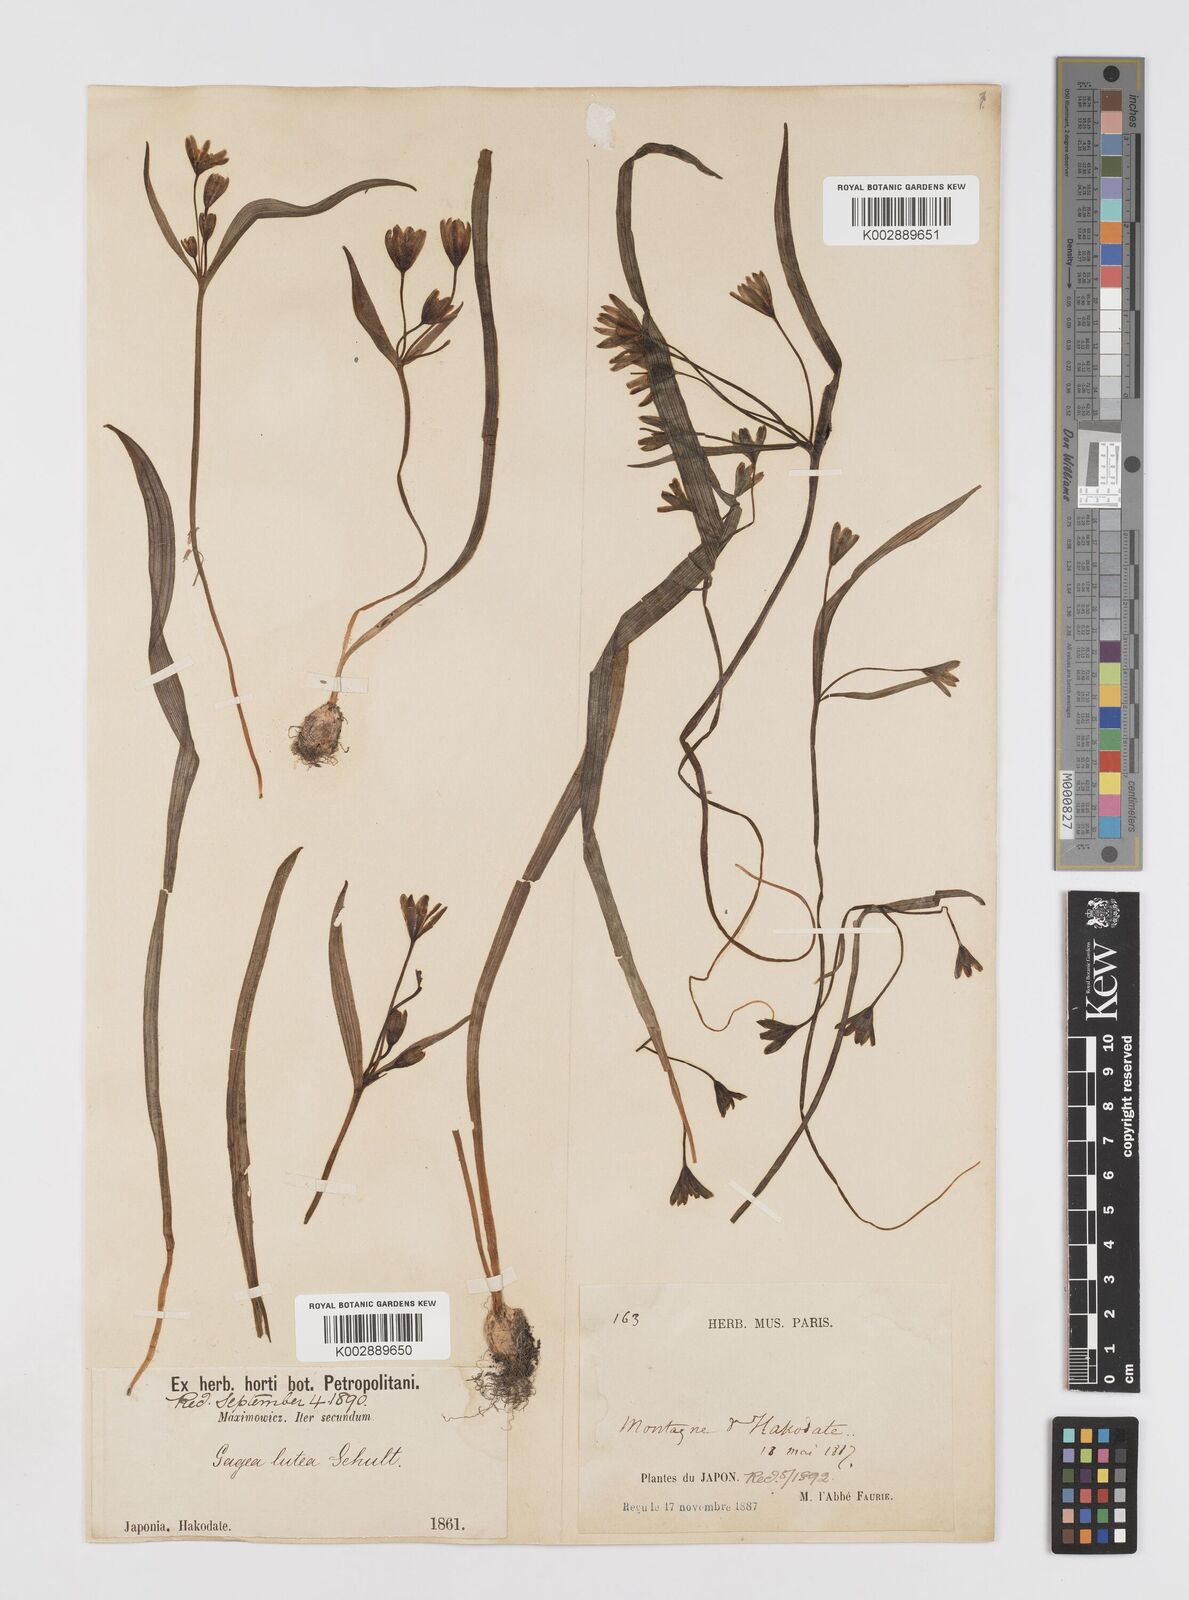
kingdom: Plantae
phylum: Tracheophyta
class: Liliopsida
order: Liliales
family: Liliaceae
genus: Gagea
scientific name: Gagea lutea
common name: Yellow star-of-bethlehem
